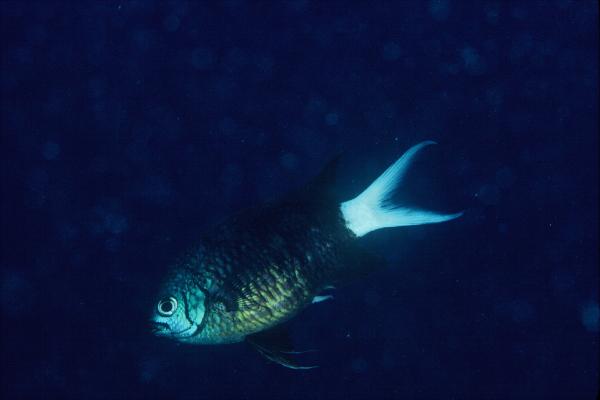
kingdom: Animalia
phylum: Chordata
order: Perciformes
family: Pomacentridae
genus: Chromis
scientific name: Chromis xanthura
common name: Black chromis
